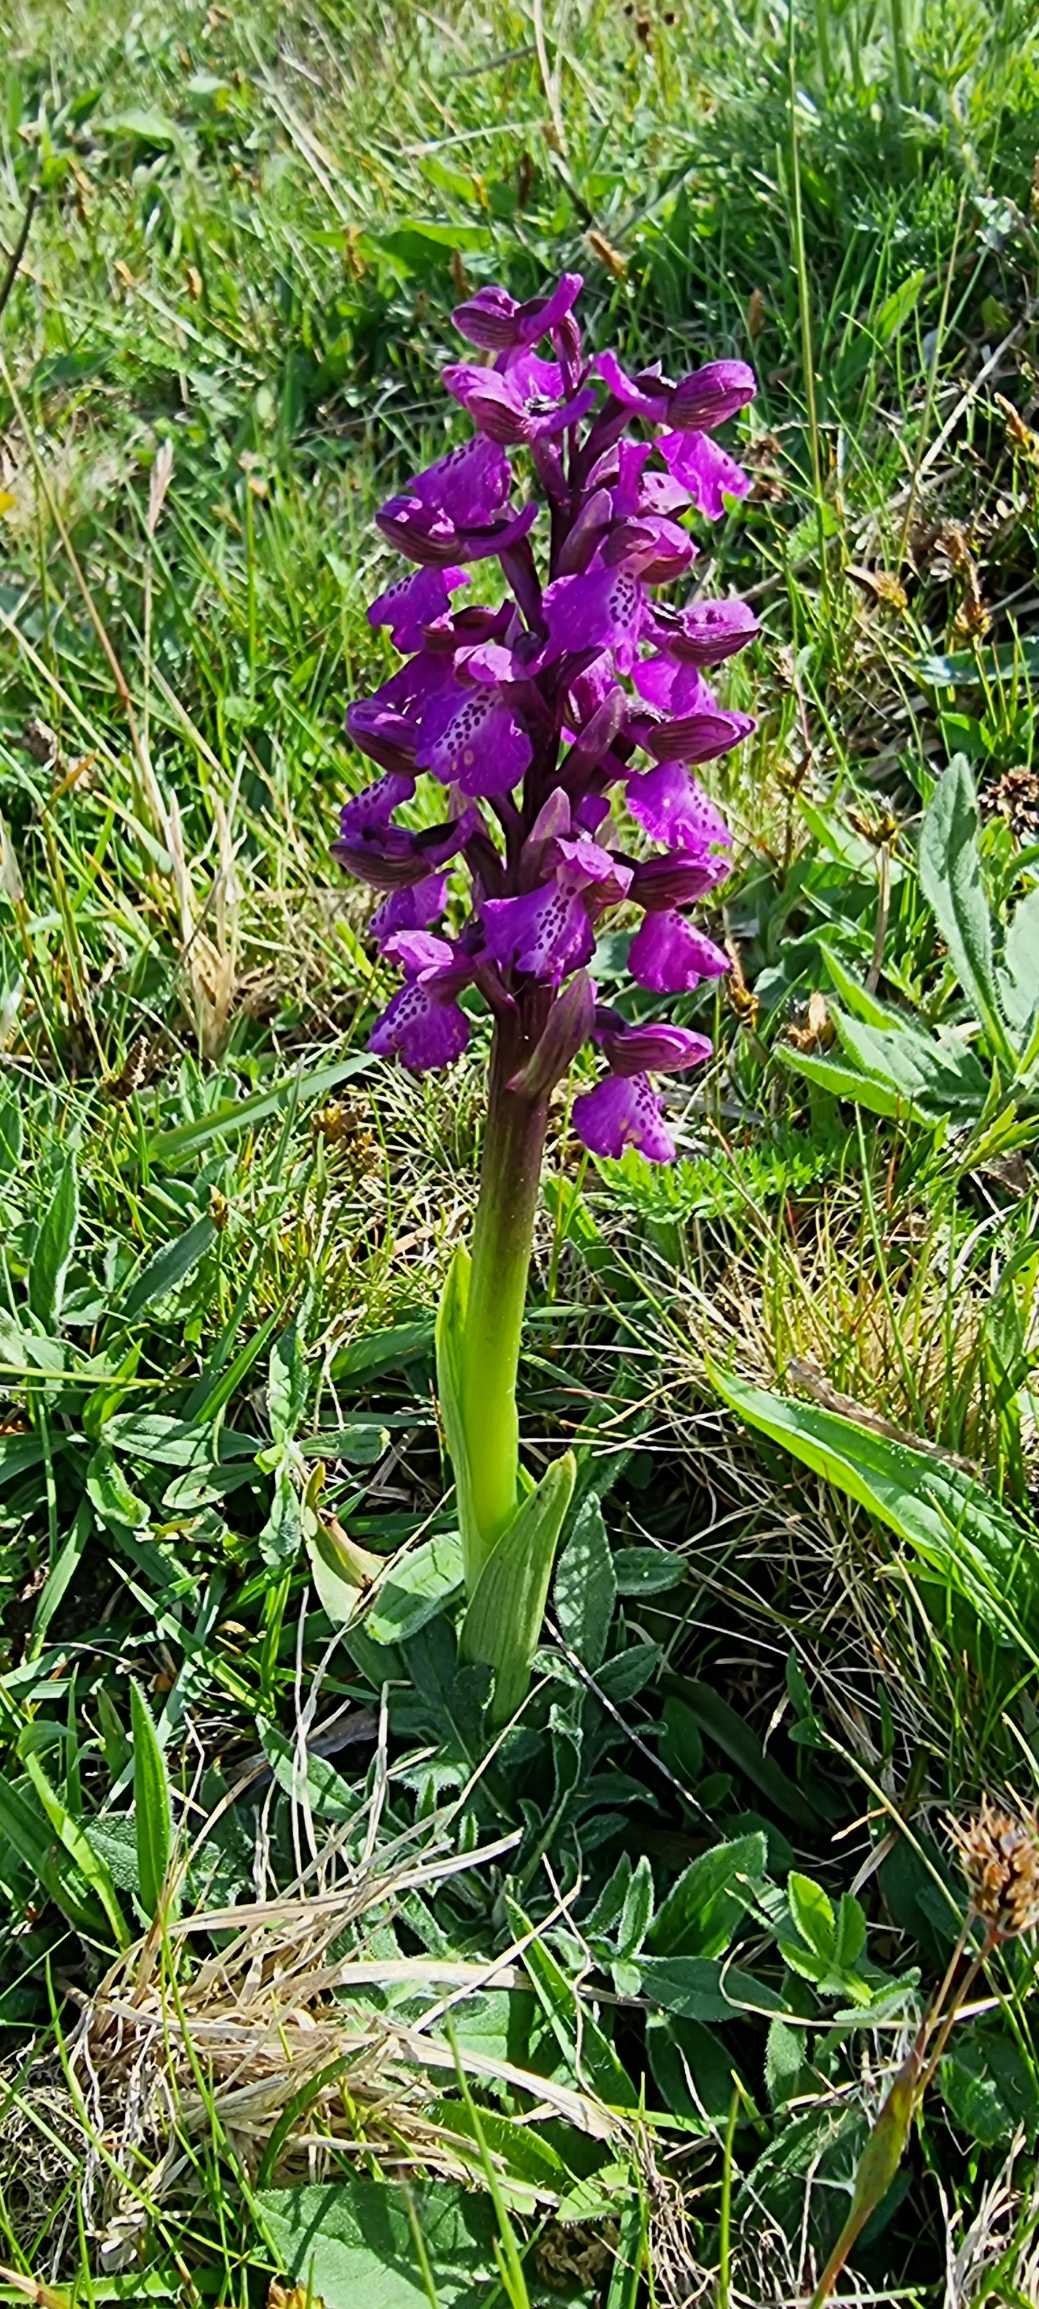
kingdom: Plantae
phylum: Tracheophyta
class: Liliopsida
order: Asparagales
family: Orchidaceae
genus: Anacamptis
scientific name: Anacamptis morio
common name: Salepgøgeurt
